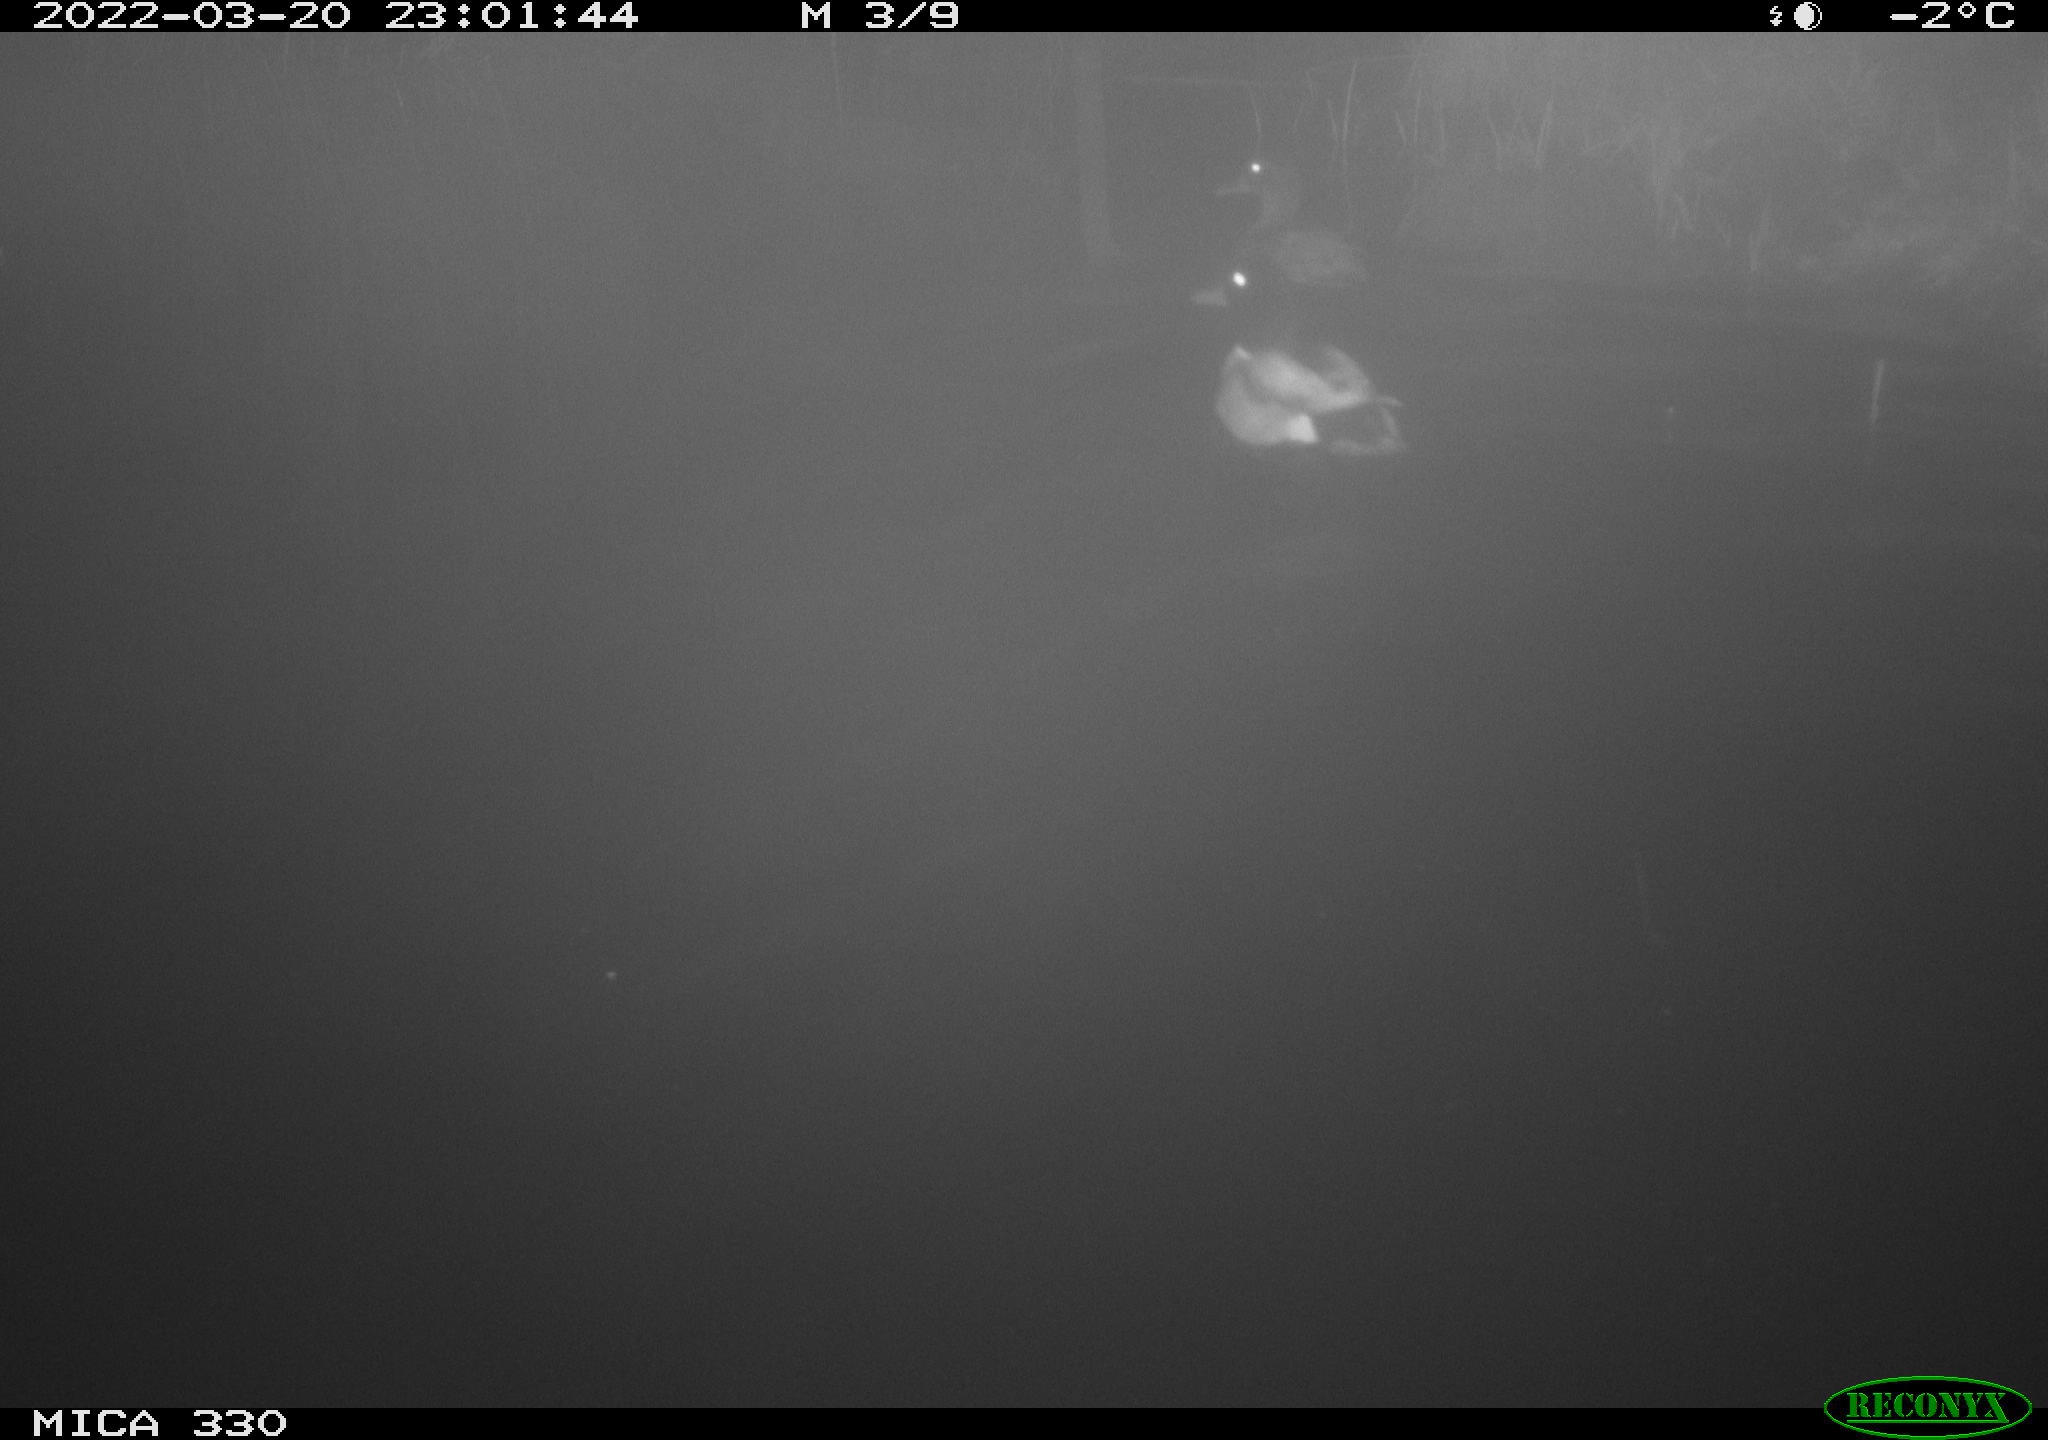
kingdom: Animalia
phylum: Chordata
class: Aves
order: Anseriformes
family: Anatidae
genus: Anas
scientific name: Anas platyrhynchos
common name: Mallard
